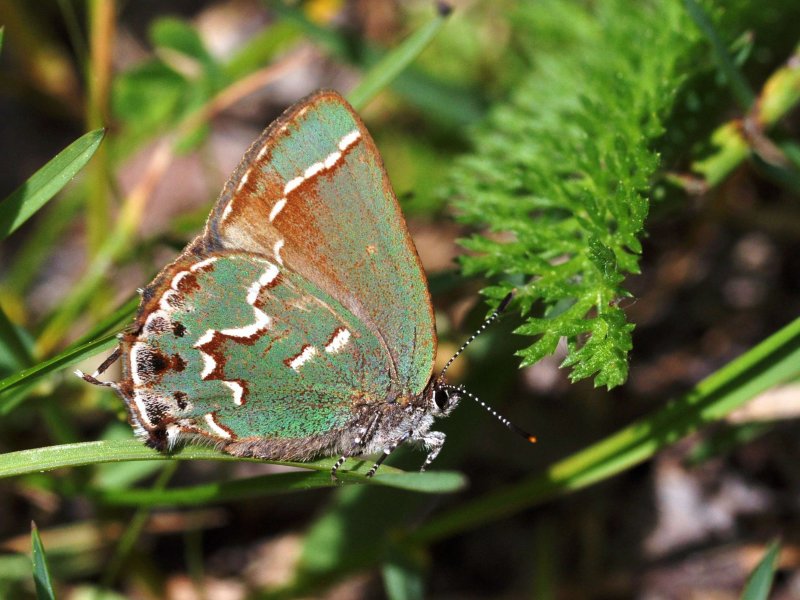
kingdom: Animalia
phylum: Arthropoda
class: Insecta
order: Lepidoptera
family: Lycaenidae
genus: Mitoura
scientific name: Mitoura gryneus
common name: Juniper Hairstreak
